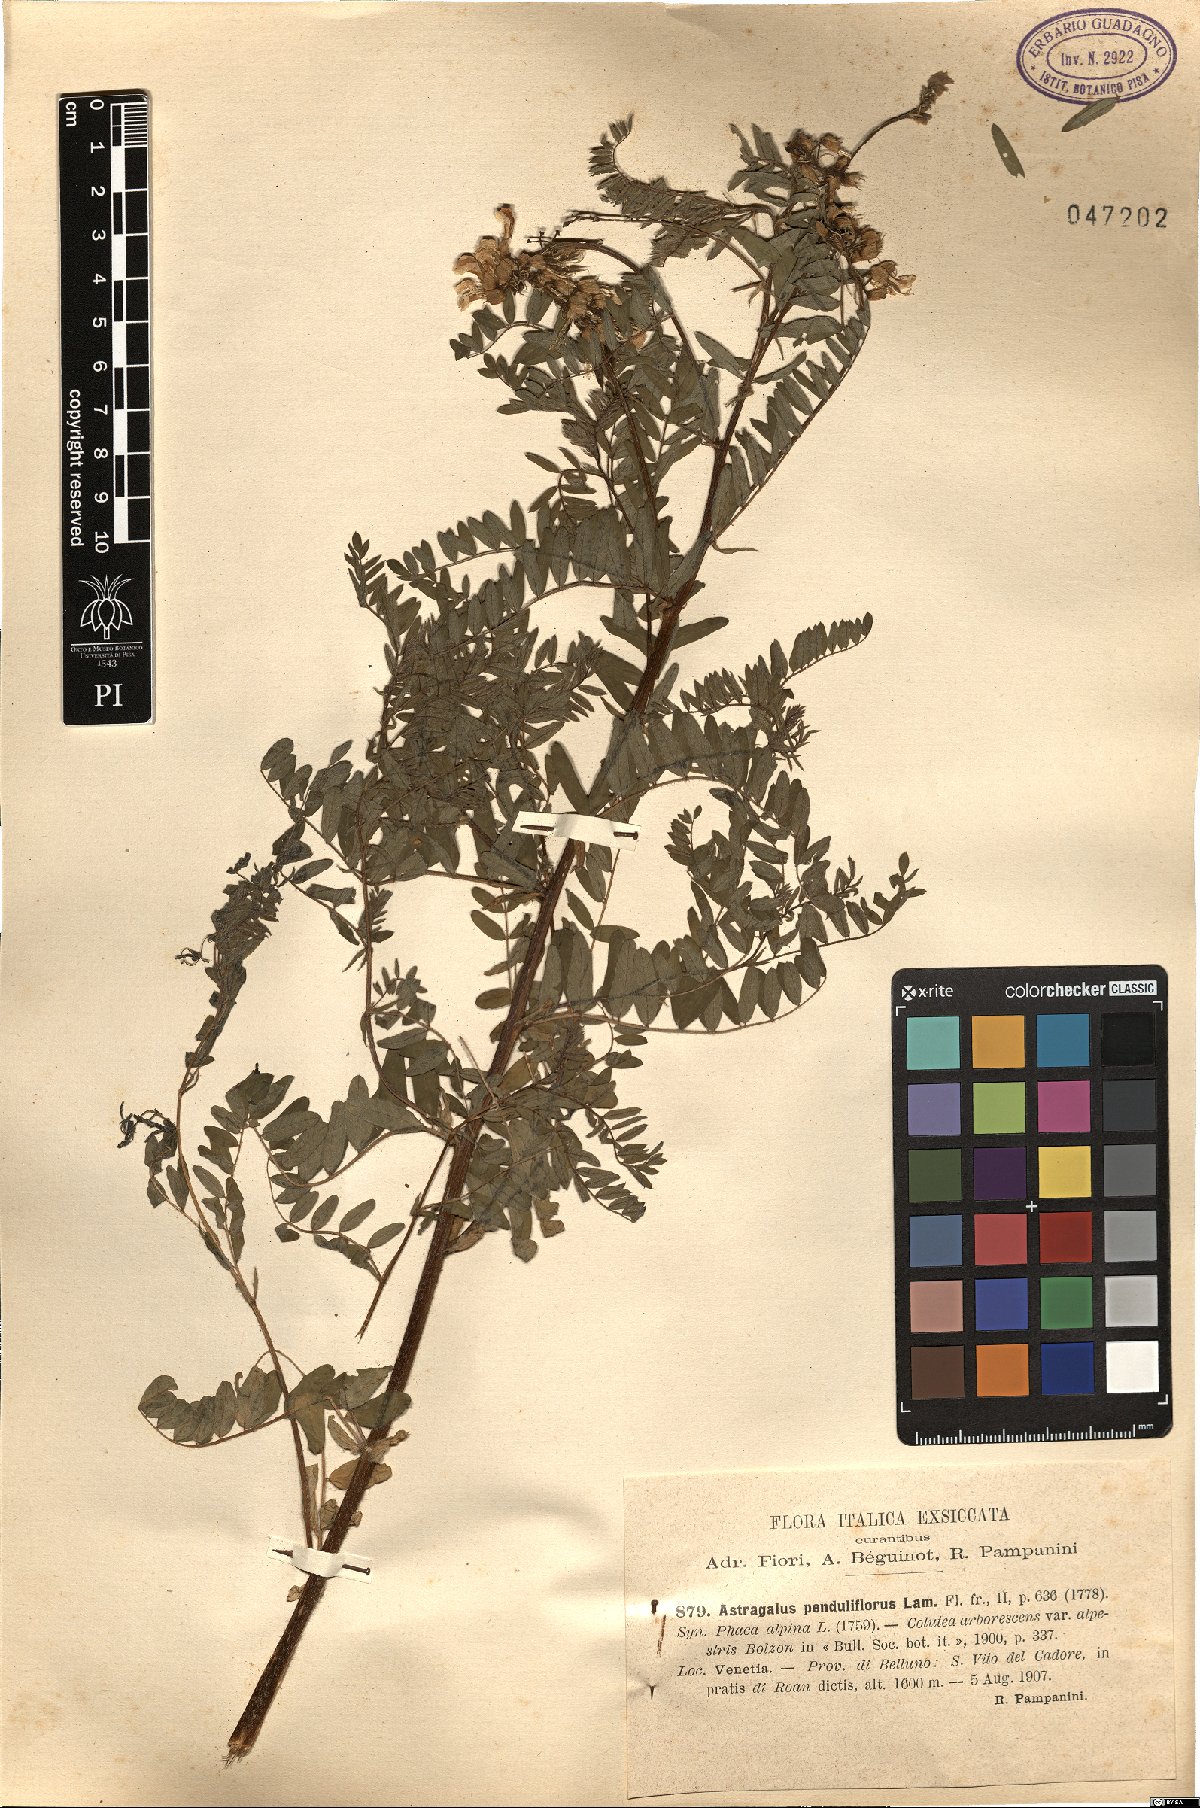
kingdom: Plantae
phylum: Tracheophyta
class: Magnoliopsida
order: Fabales
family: Fabaceae
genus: Astragalus
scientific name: Astragalus penduliflorus
